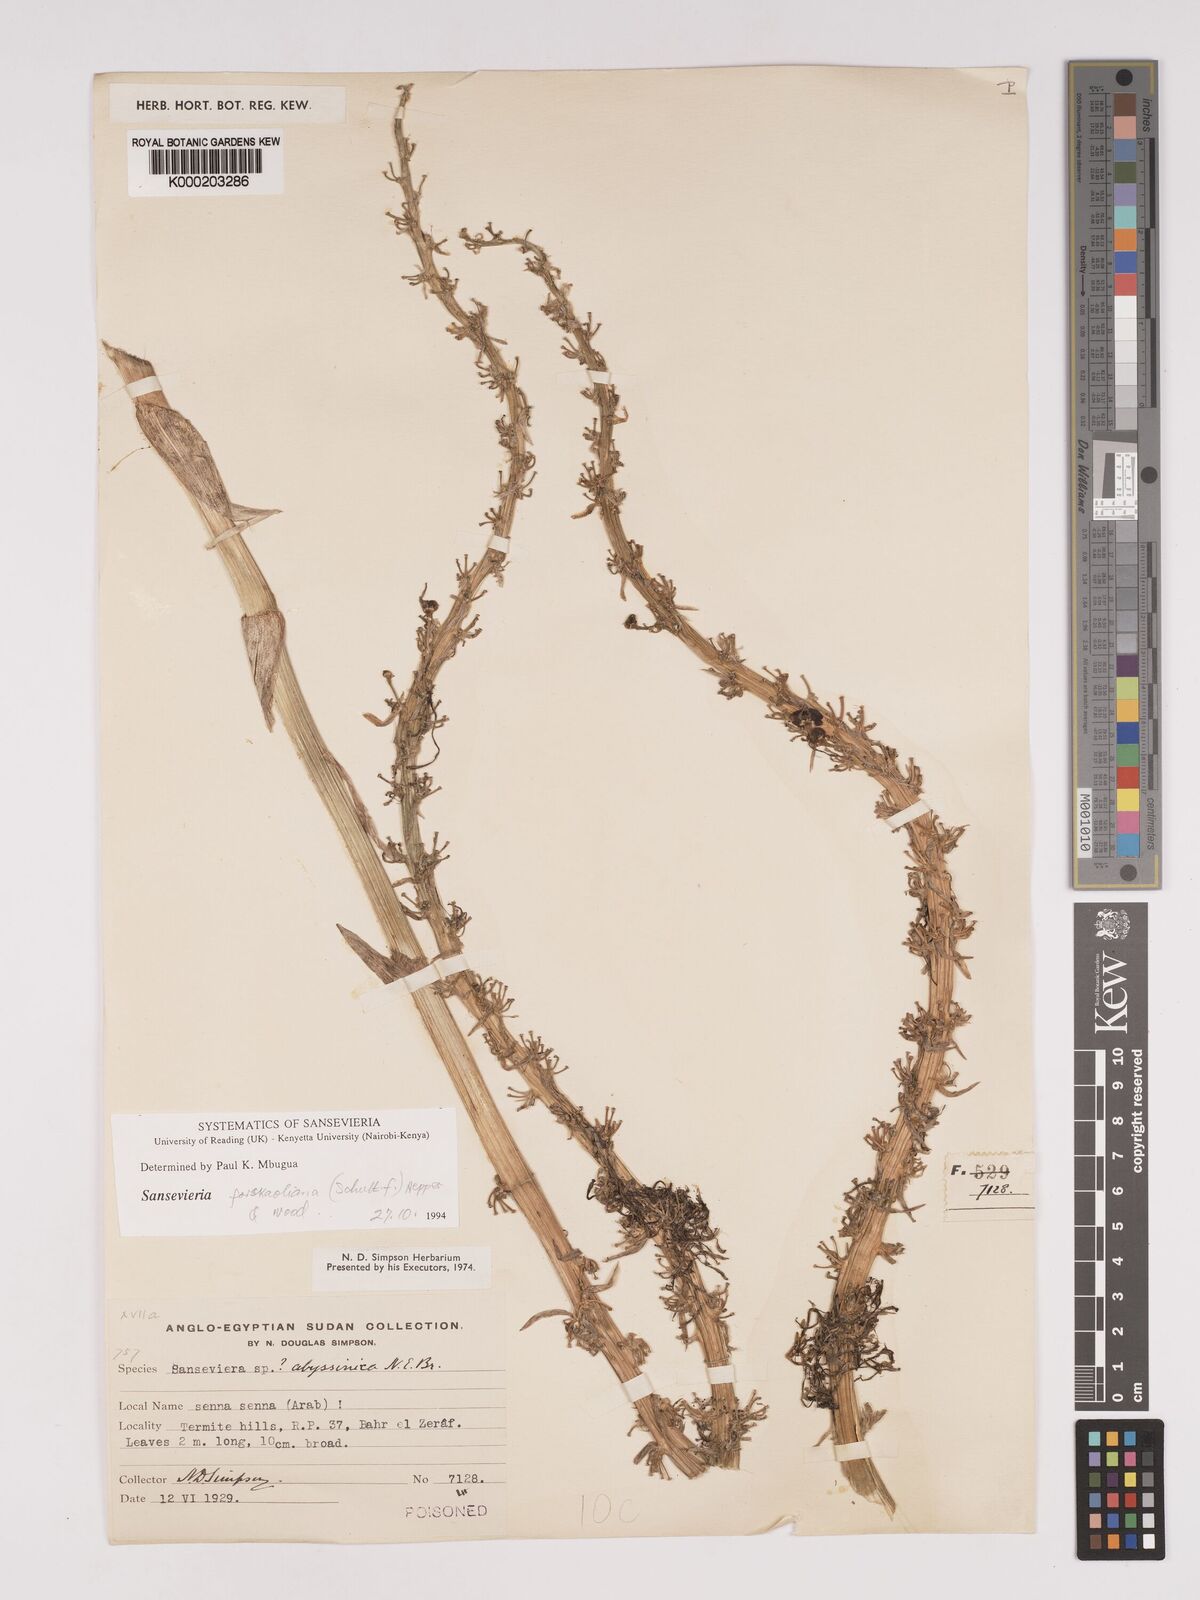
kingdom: Plantae
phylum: Tracheophyta
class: Liliopsida
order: Asparagales
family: Asparagaceae
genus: Dracaena
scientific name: Dracaena forskaliana
